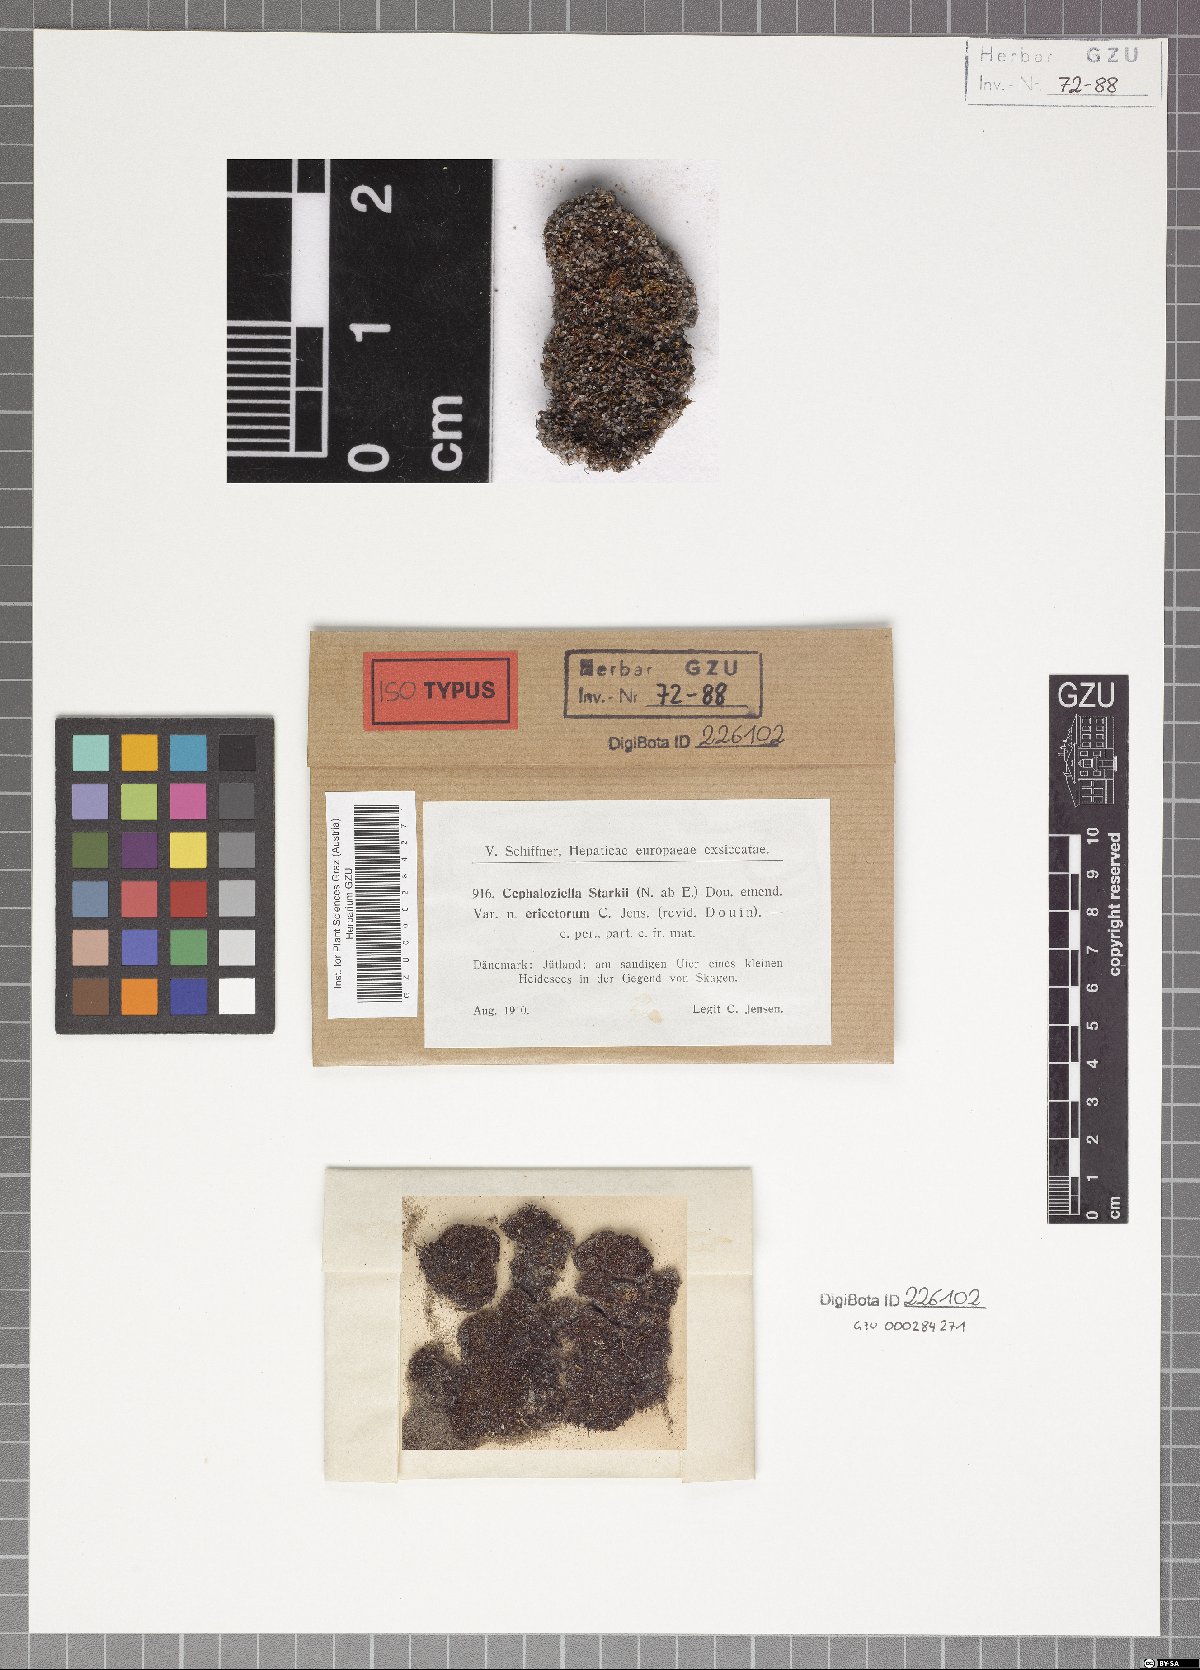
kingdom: Plantae
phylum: Marchantiophyta
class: Jungermanniopsida
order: Jungermanniales
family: Cephaloziellaceae
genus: Cephaloziella
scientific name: Cephaloziella divaricata
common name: Spreading threadwort
